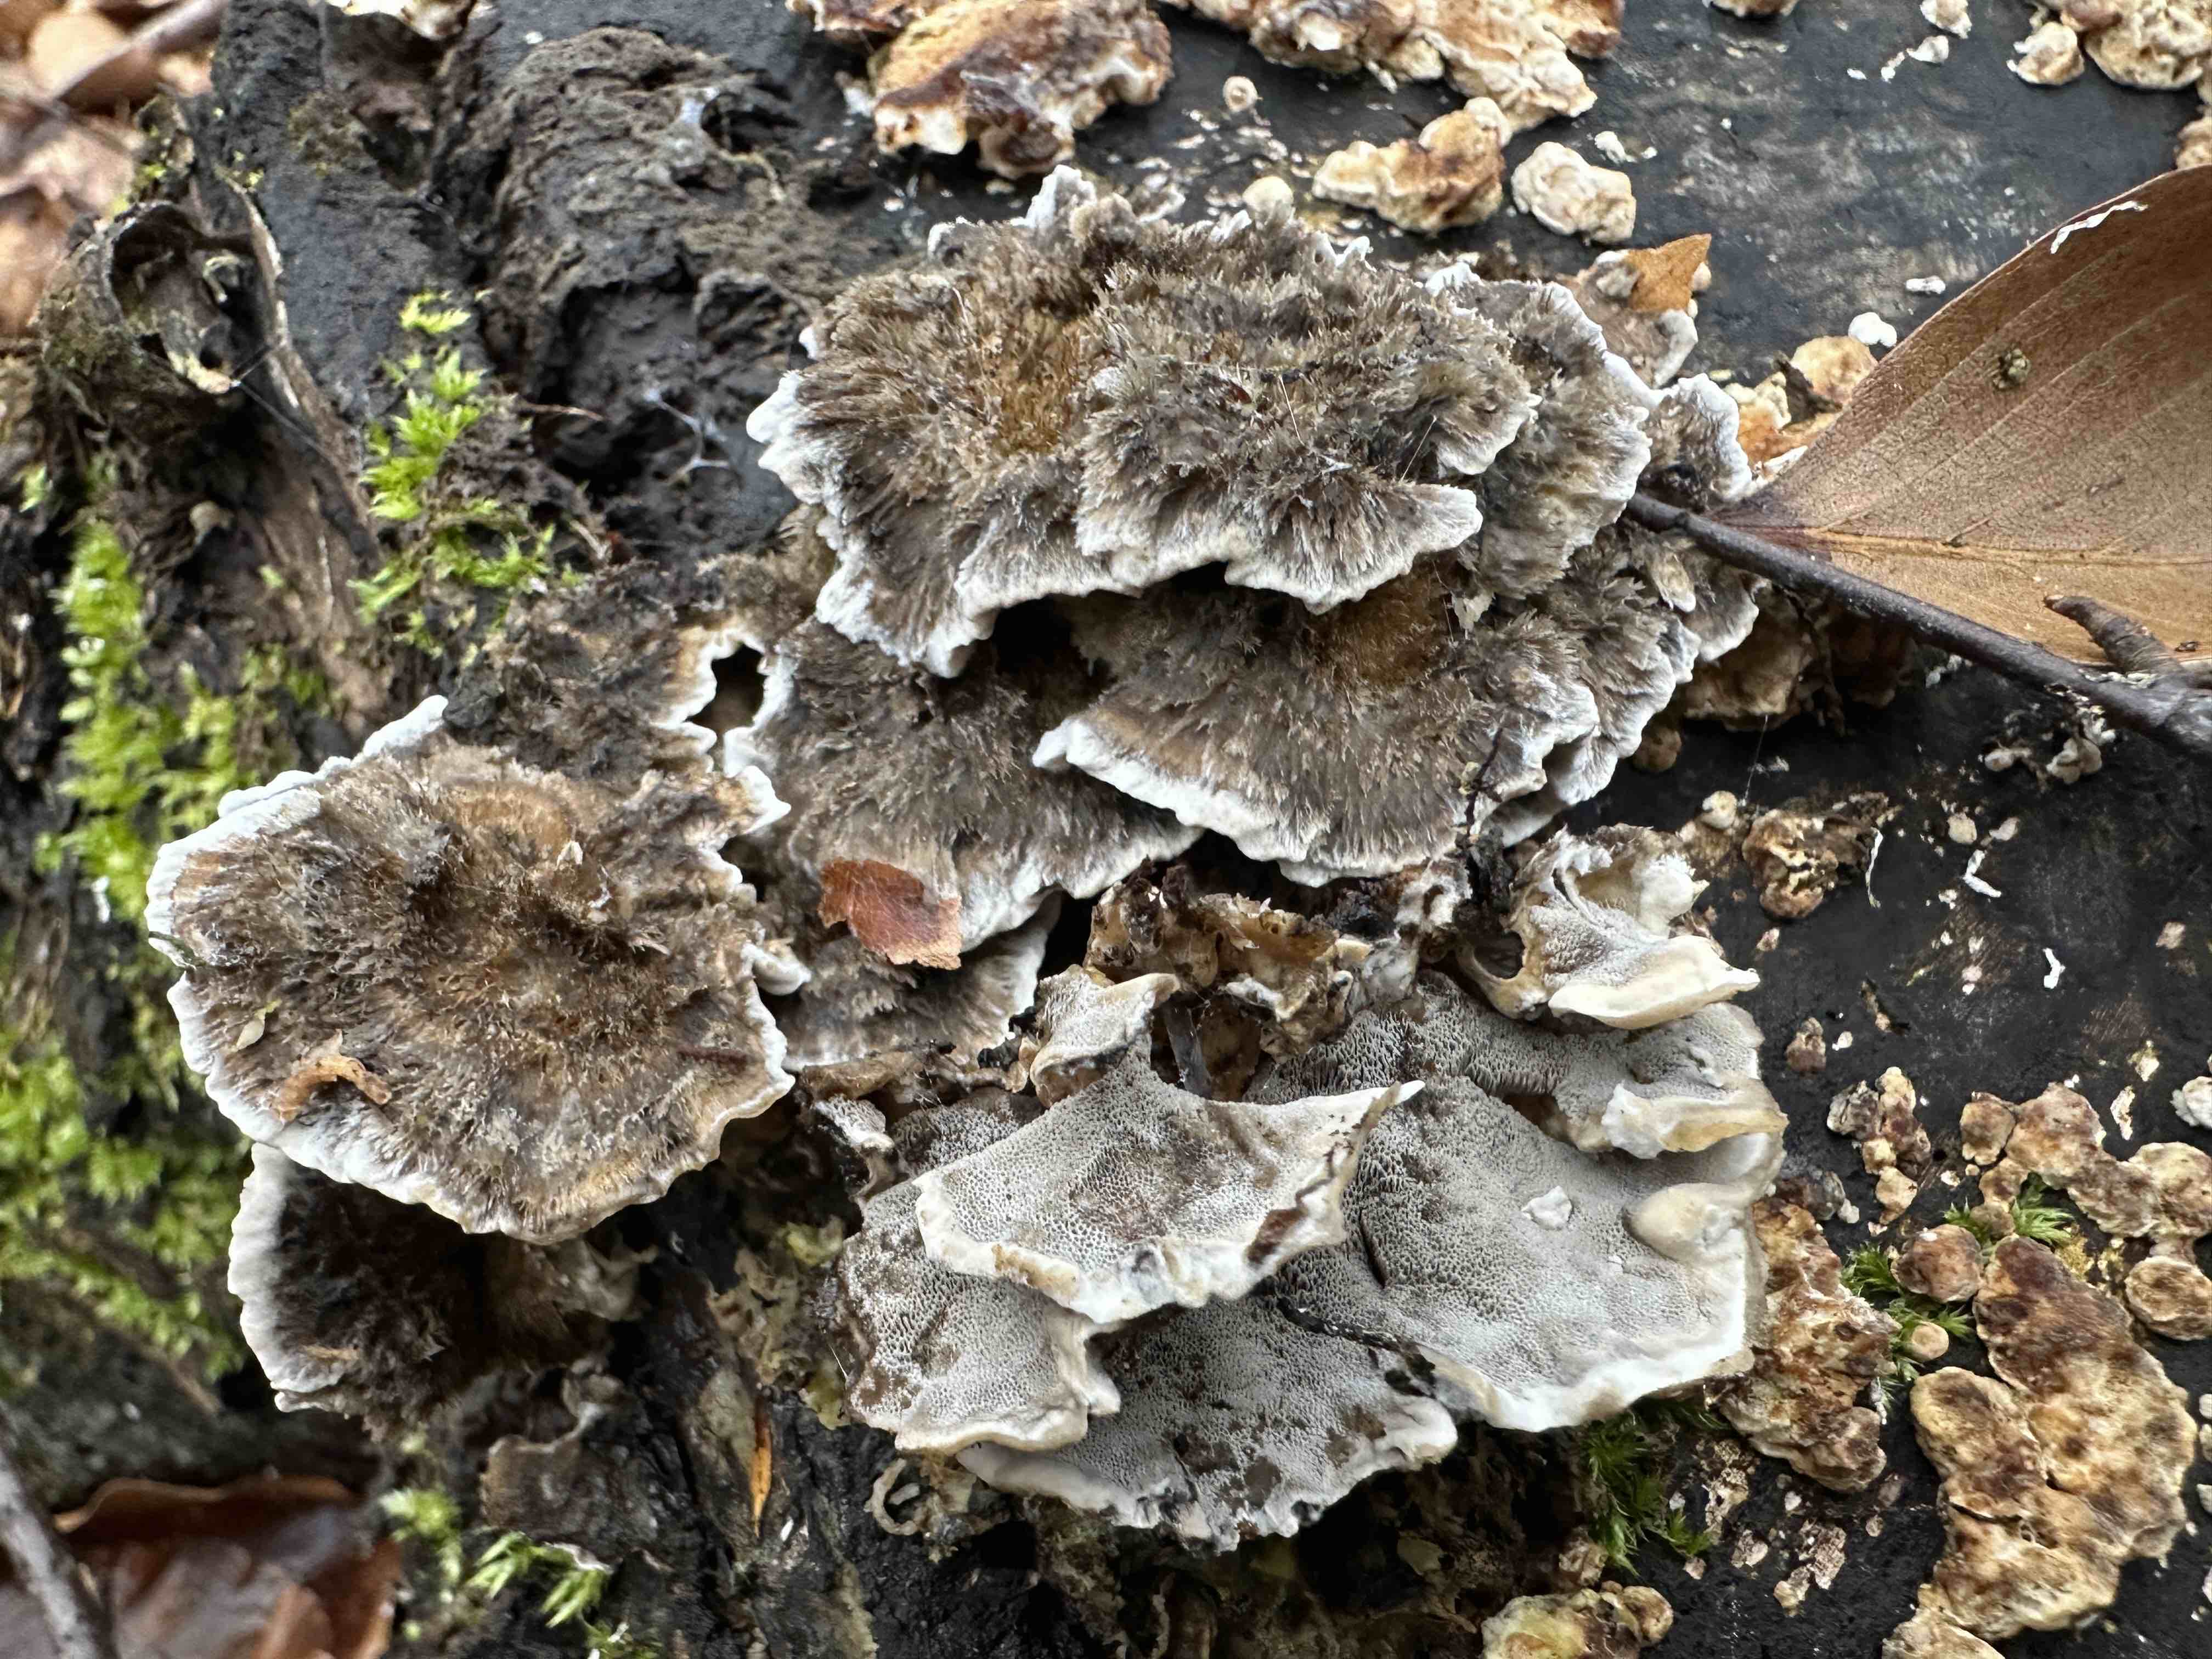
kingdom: Fungi
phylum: Basidiomycota
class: Agaricomycetes
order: Polyporales
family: Phanerochaetaceae
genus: Bjerkandera
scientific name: Bjerkandera adusta
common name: sveden sodporesvamp
